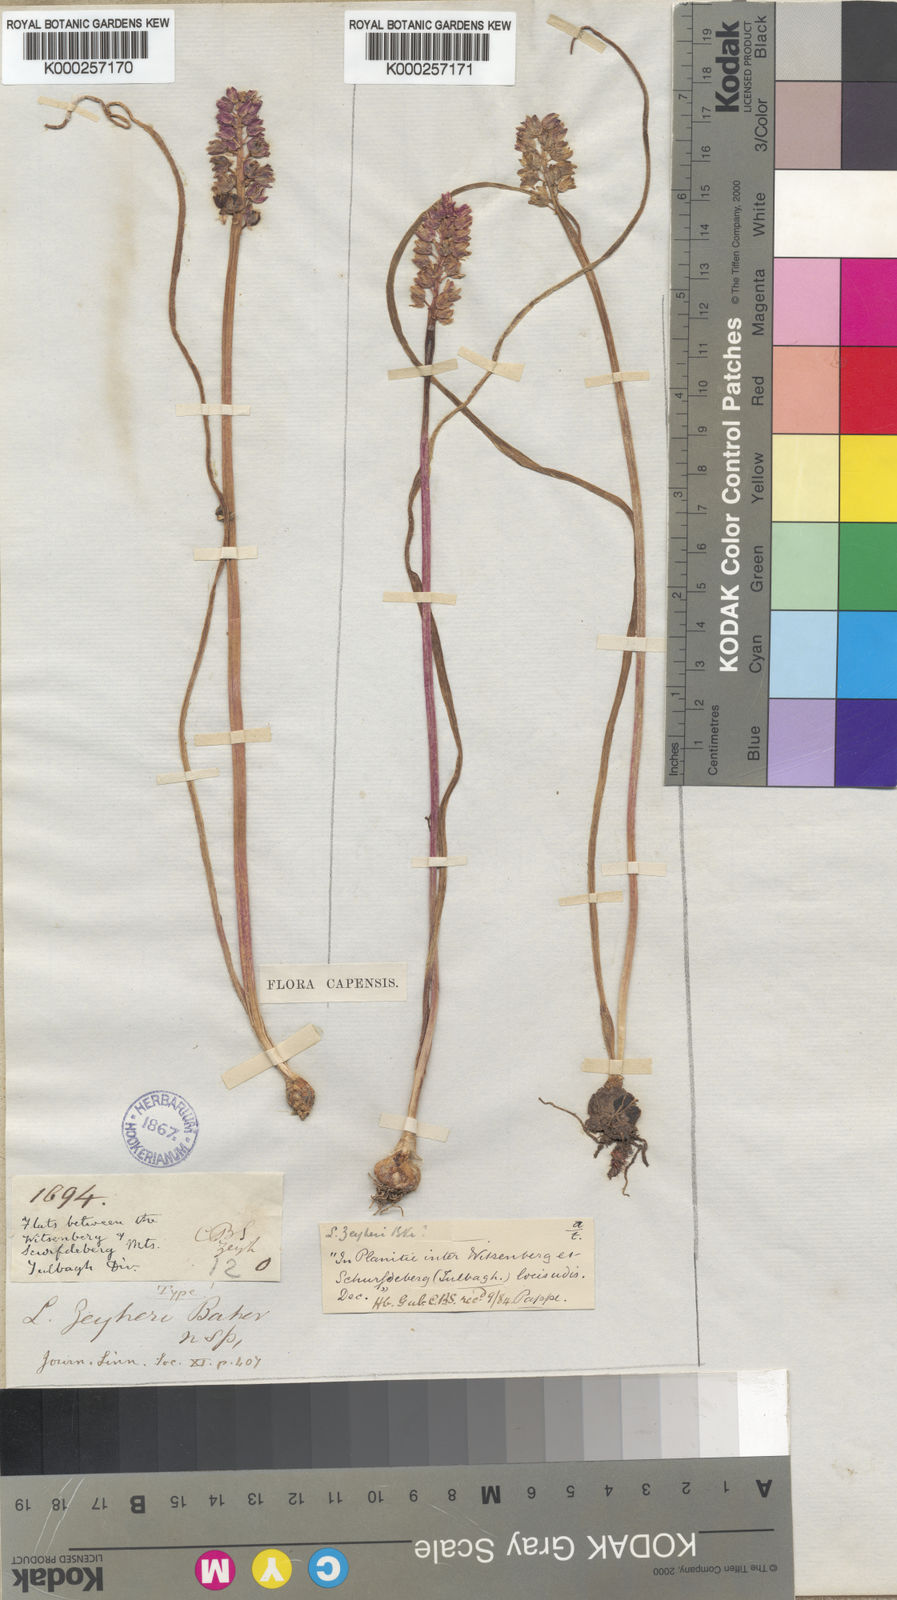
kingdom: Plantae
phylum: Tracheophyta
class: Liliopsida
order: Asparagales
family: Asparagaceae
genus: Lachenalia
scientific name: Lachenalia zeyheri
